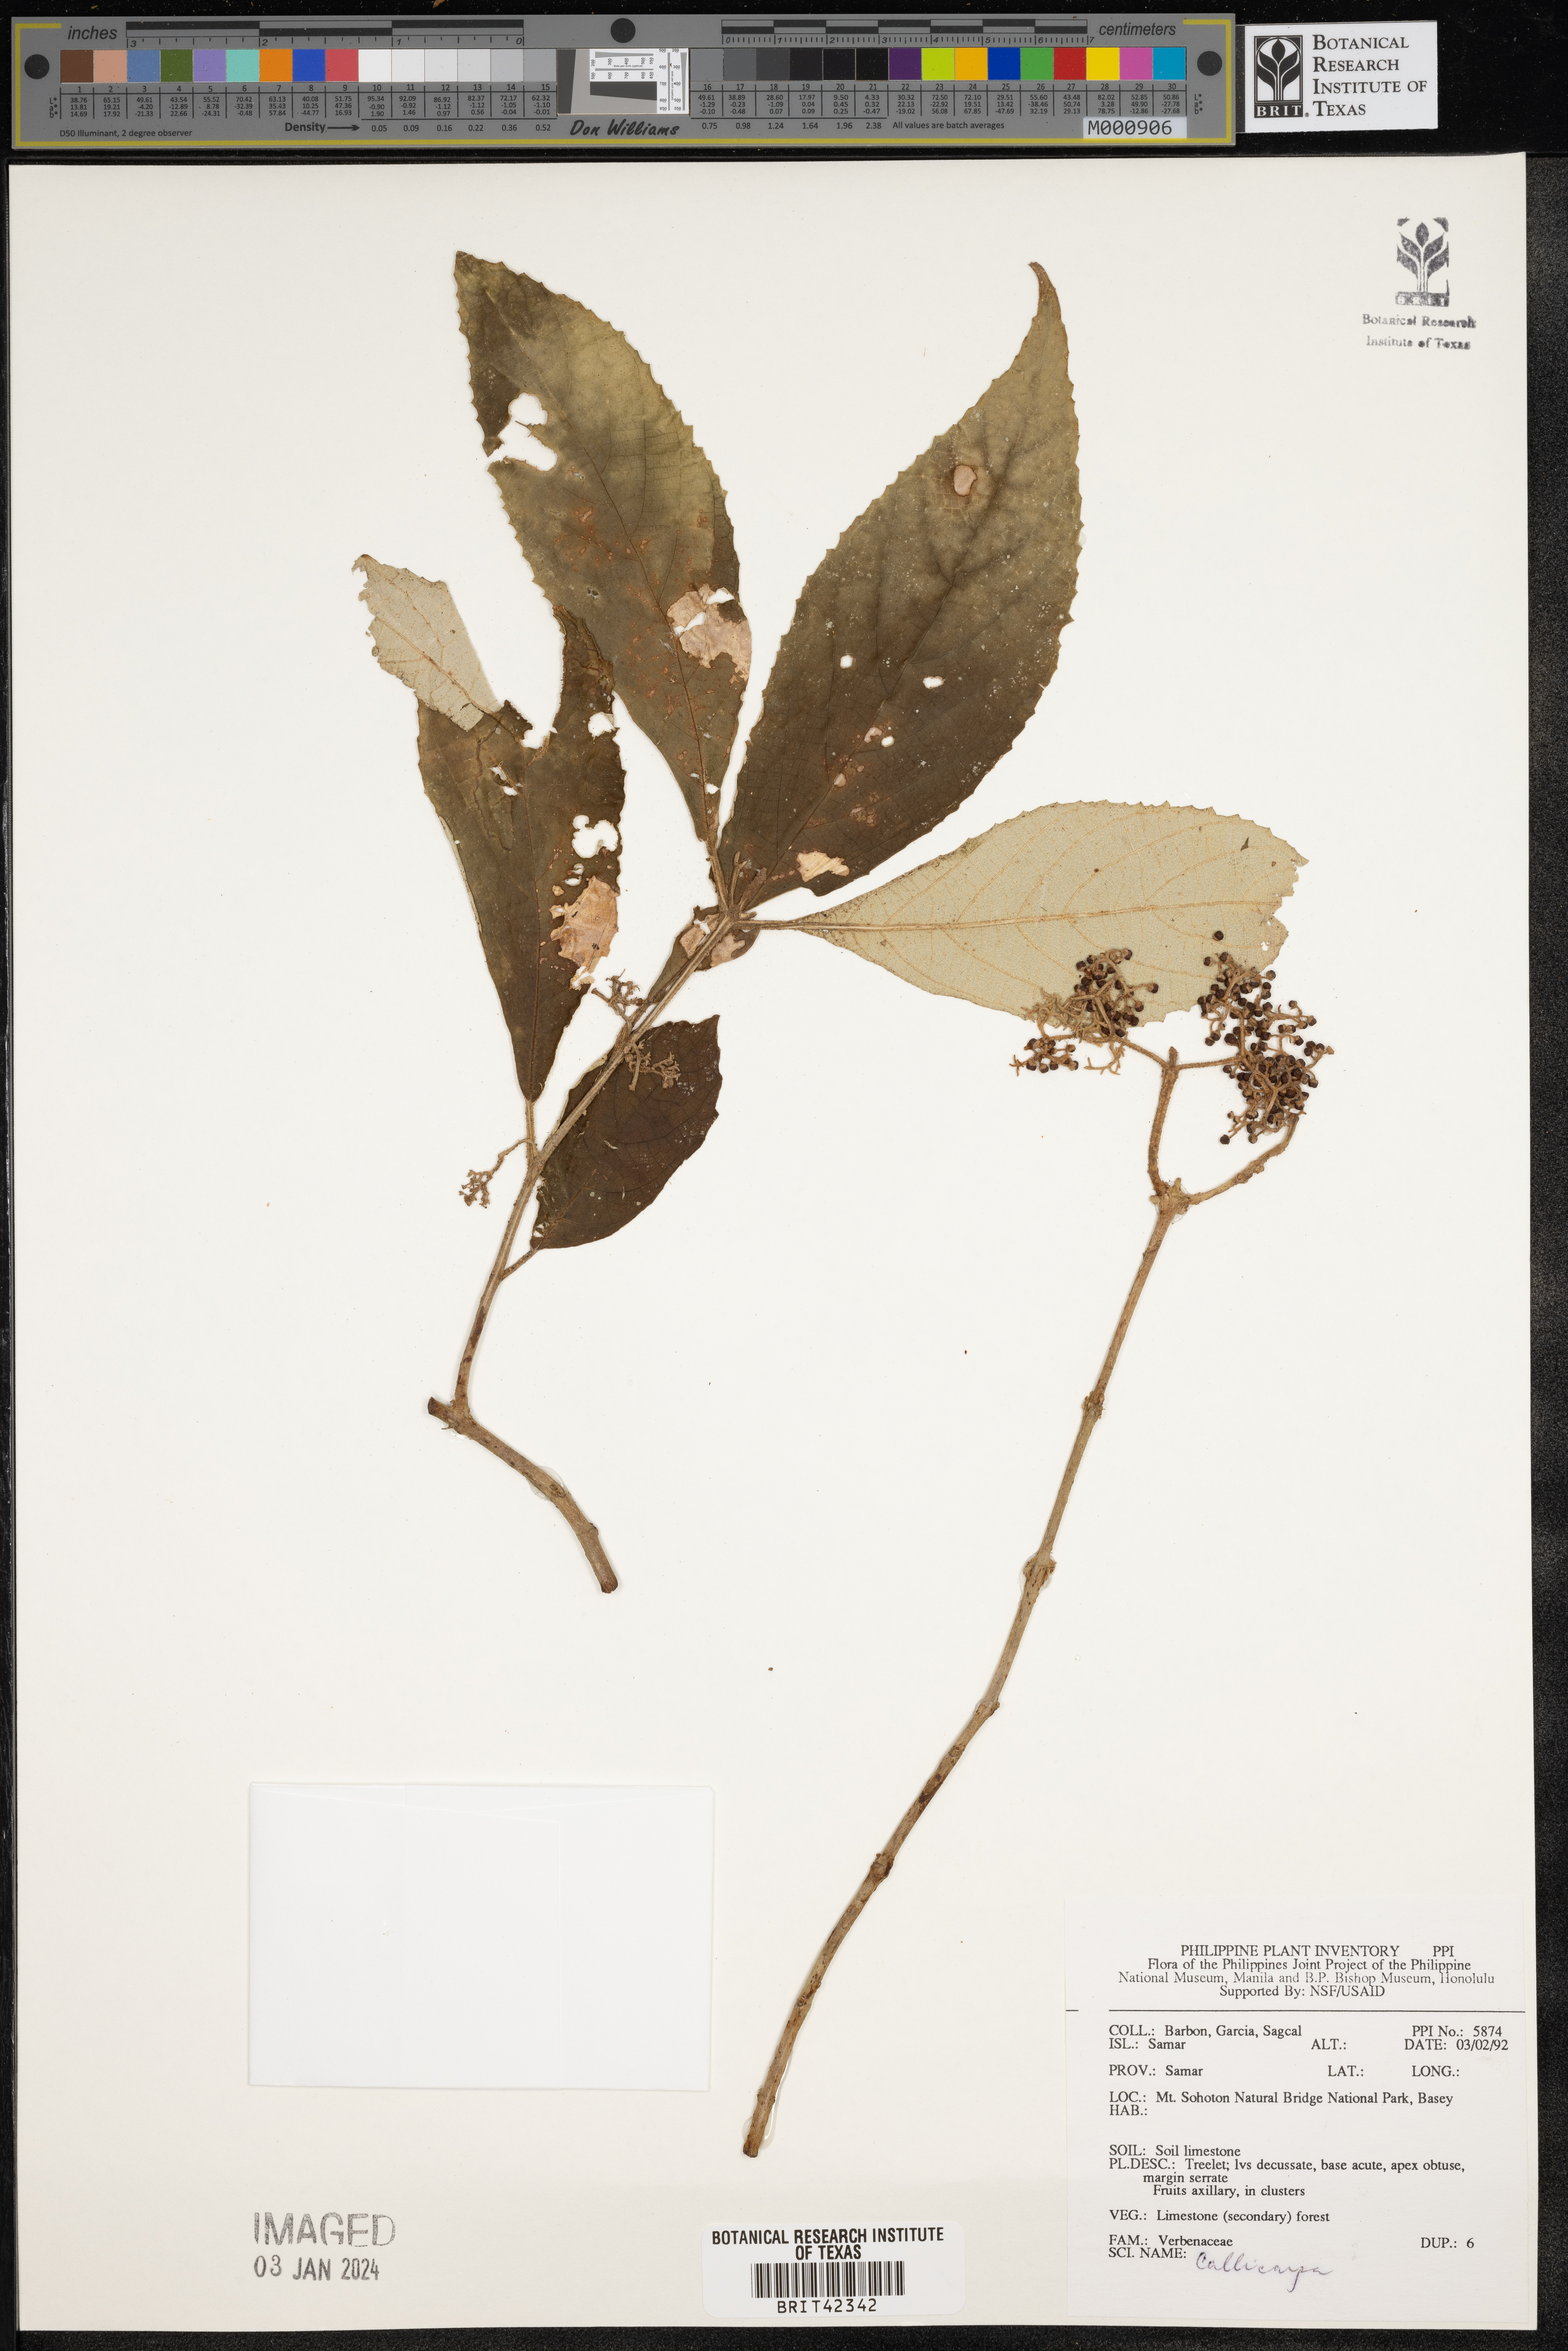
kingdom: Plantae
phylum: Tracheophyta
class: Magnoliopsida
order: Lamiales
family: Lamiaceae
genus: Callicarpa
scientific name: Callicarpa
